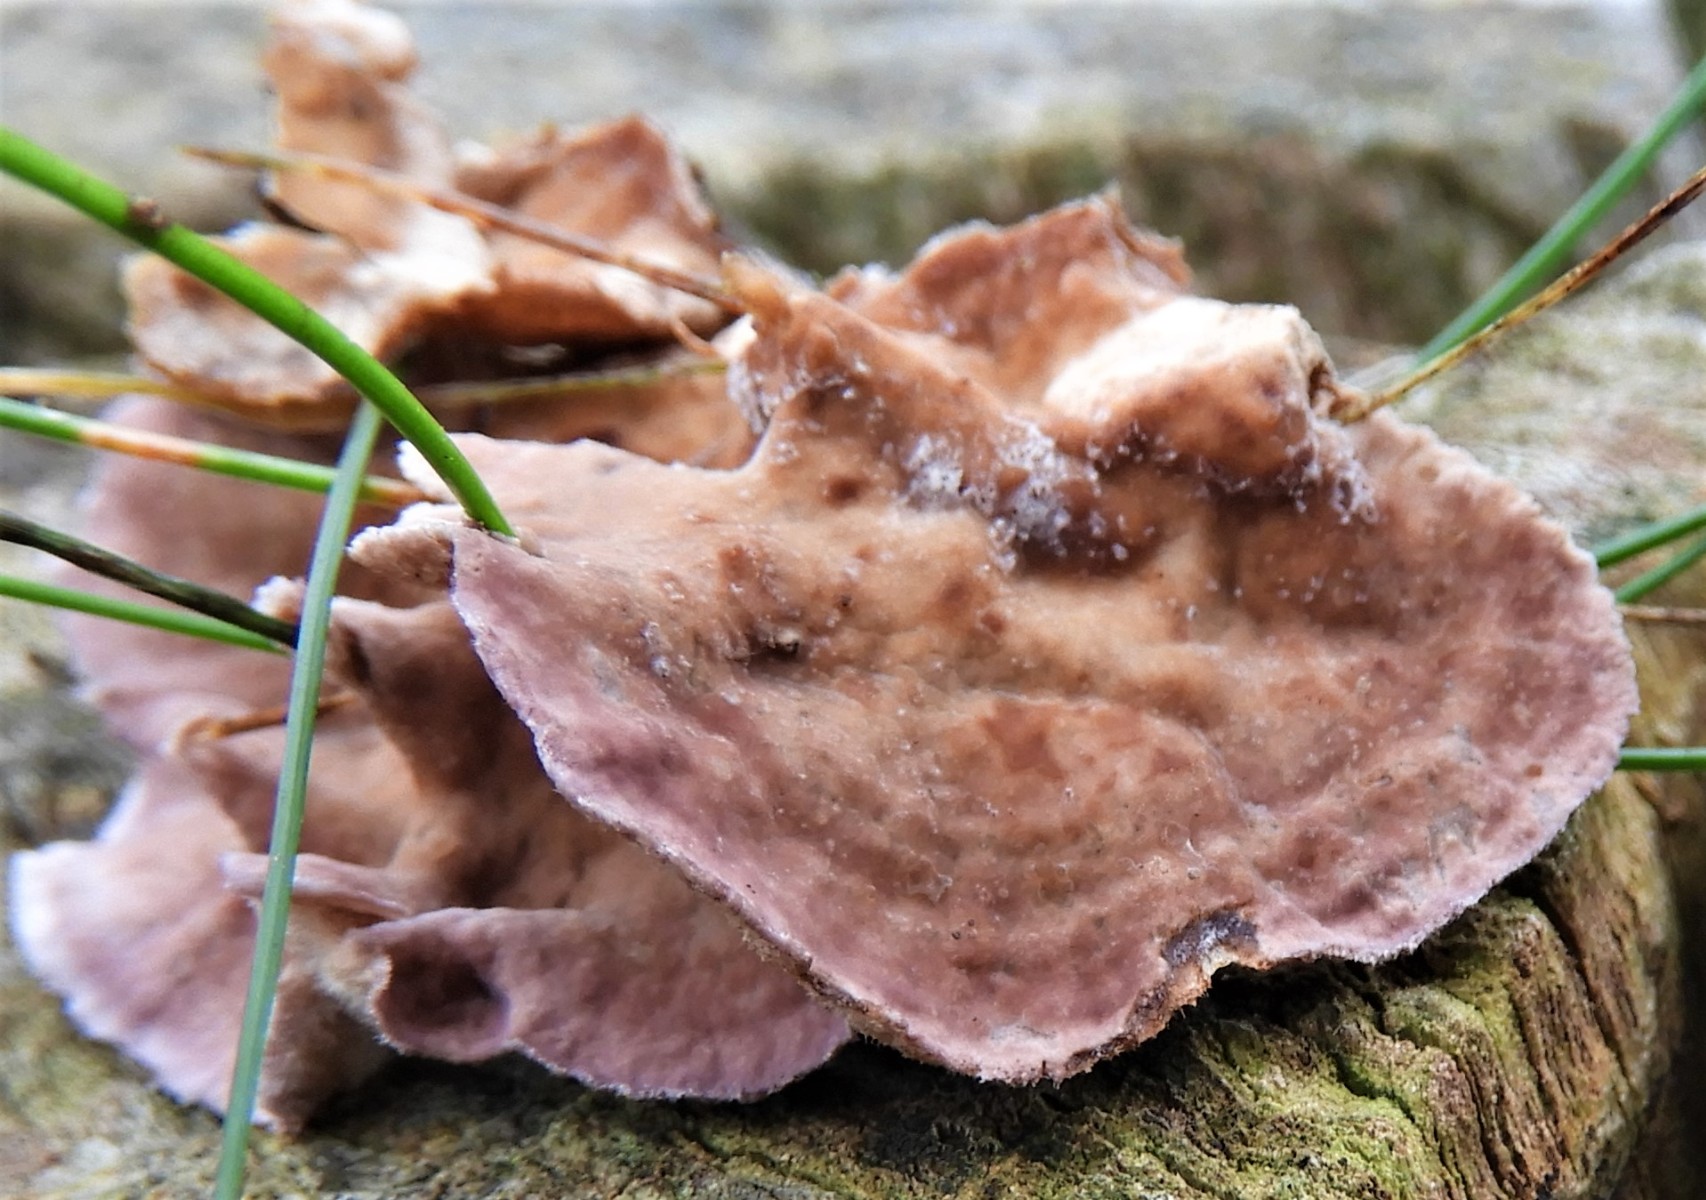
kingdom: Fungi
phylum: Basidiomycota
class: Agaricomycetes
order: Agaricales
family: Cyphellaceae
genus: Chondrostereum
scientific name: Chondrostereum purpureum
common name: purpurlædersvamp
